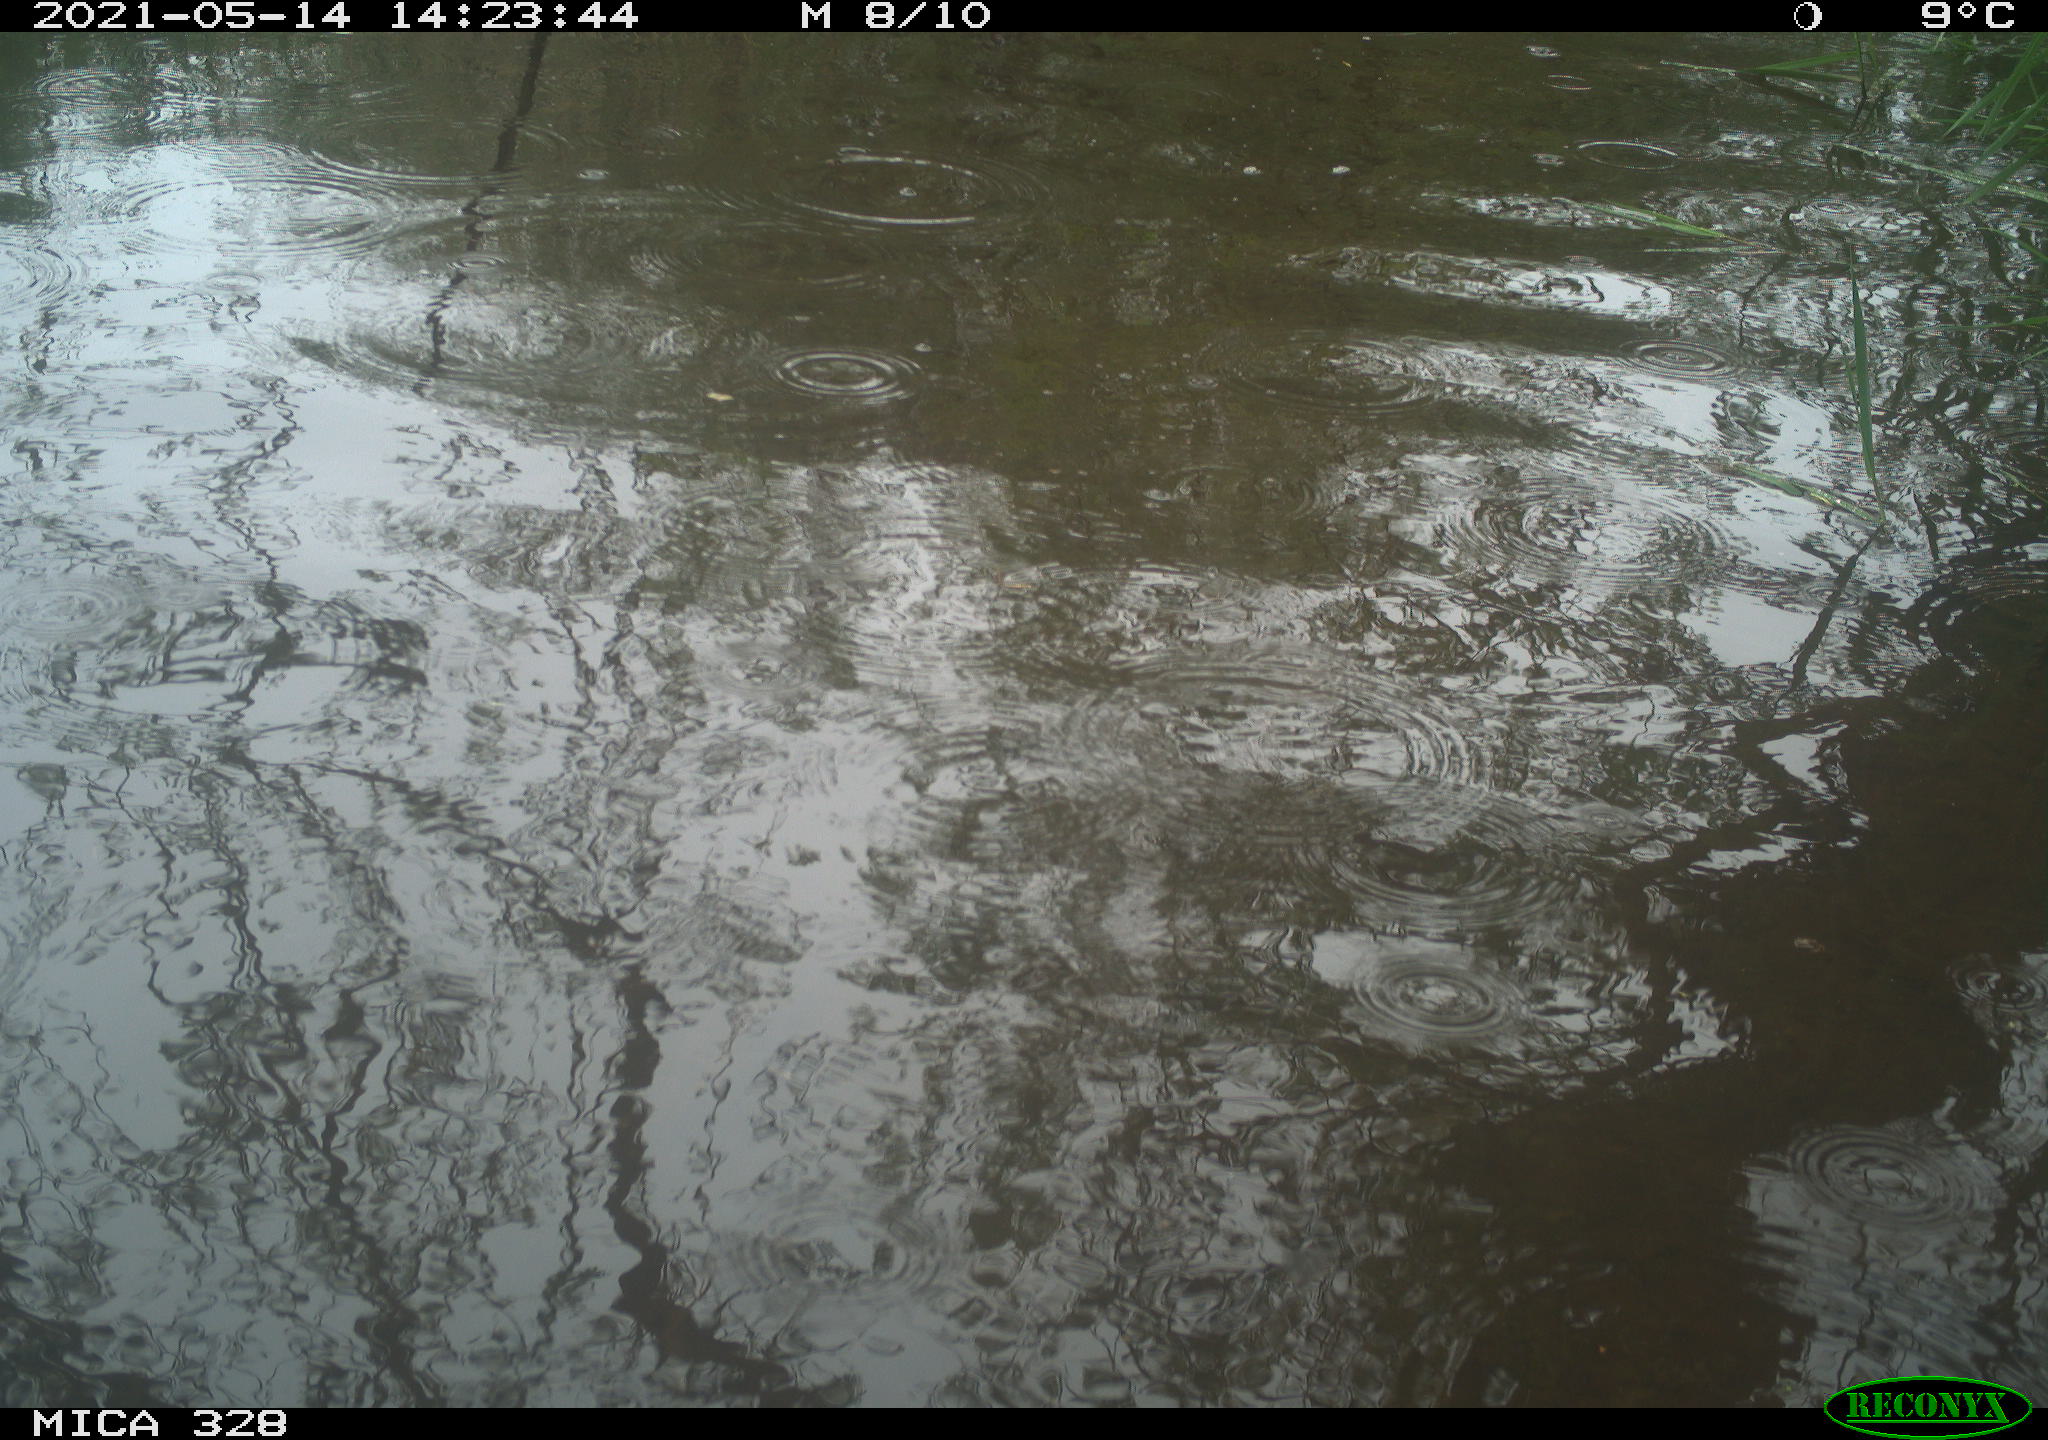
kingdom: Animalia
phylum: Chordata
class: Mammalia
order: Rodentia
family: Cricetidae
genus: Ondatra
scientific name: Ondatra zibethicus
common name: Muskrat
